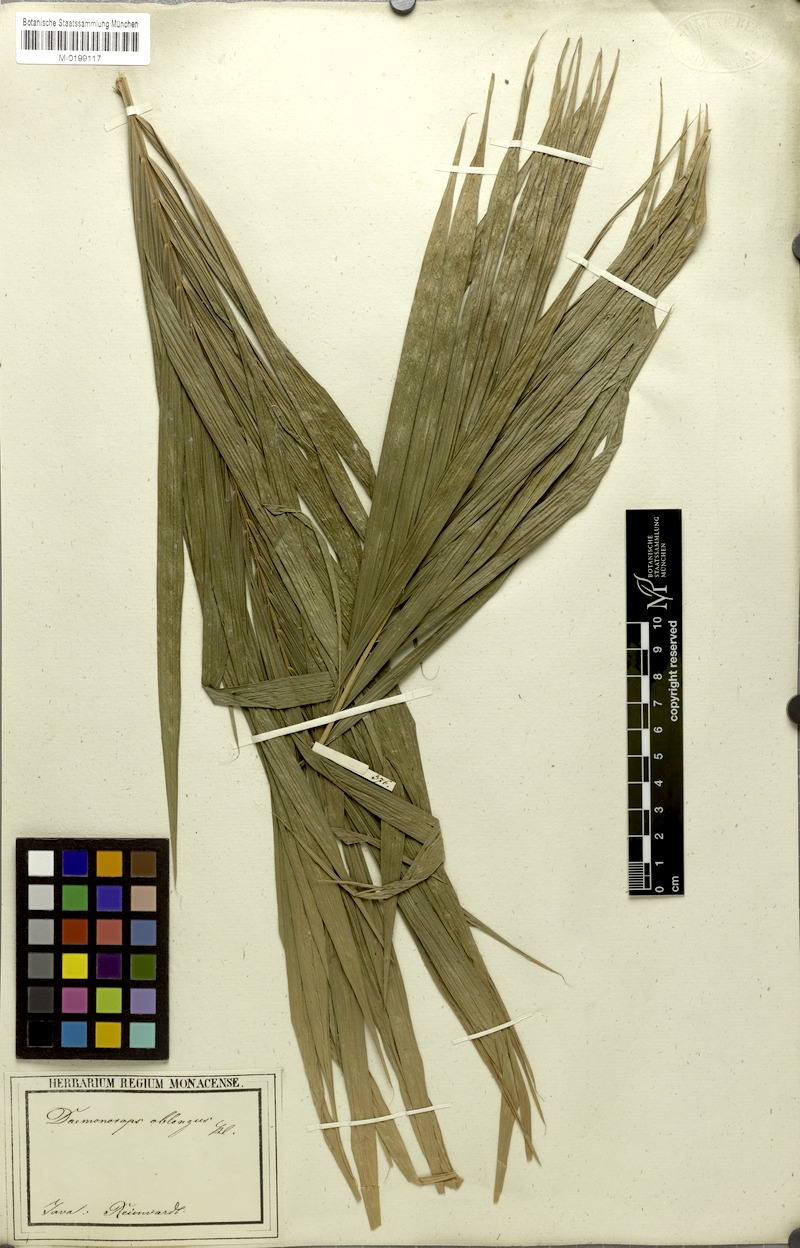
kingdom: Plantae
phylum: Tracheophyta
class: Liliopsida
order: Arecales
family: Arecaceae
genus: Calamus
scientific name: Calamus oblongus
